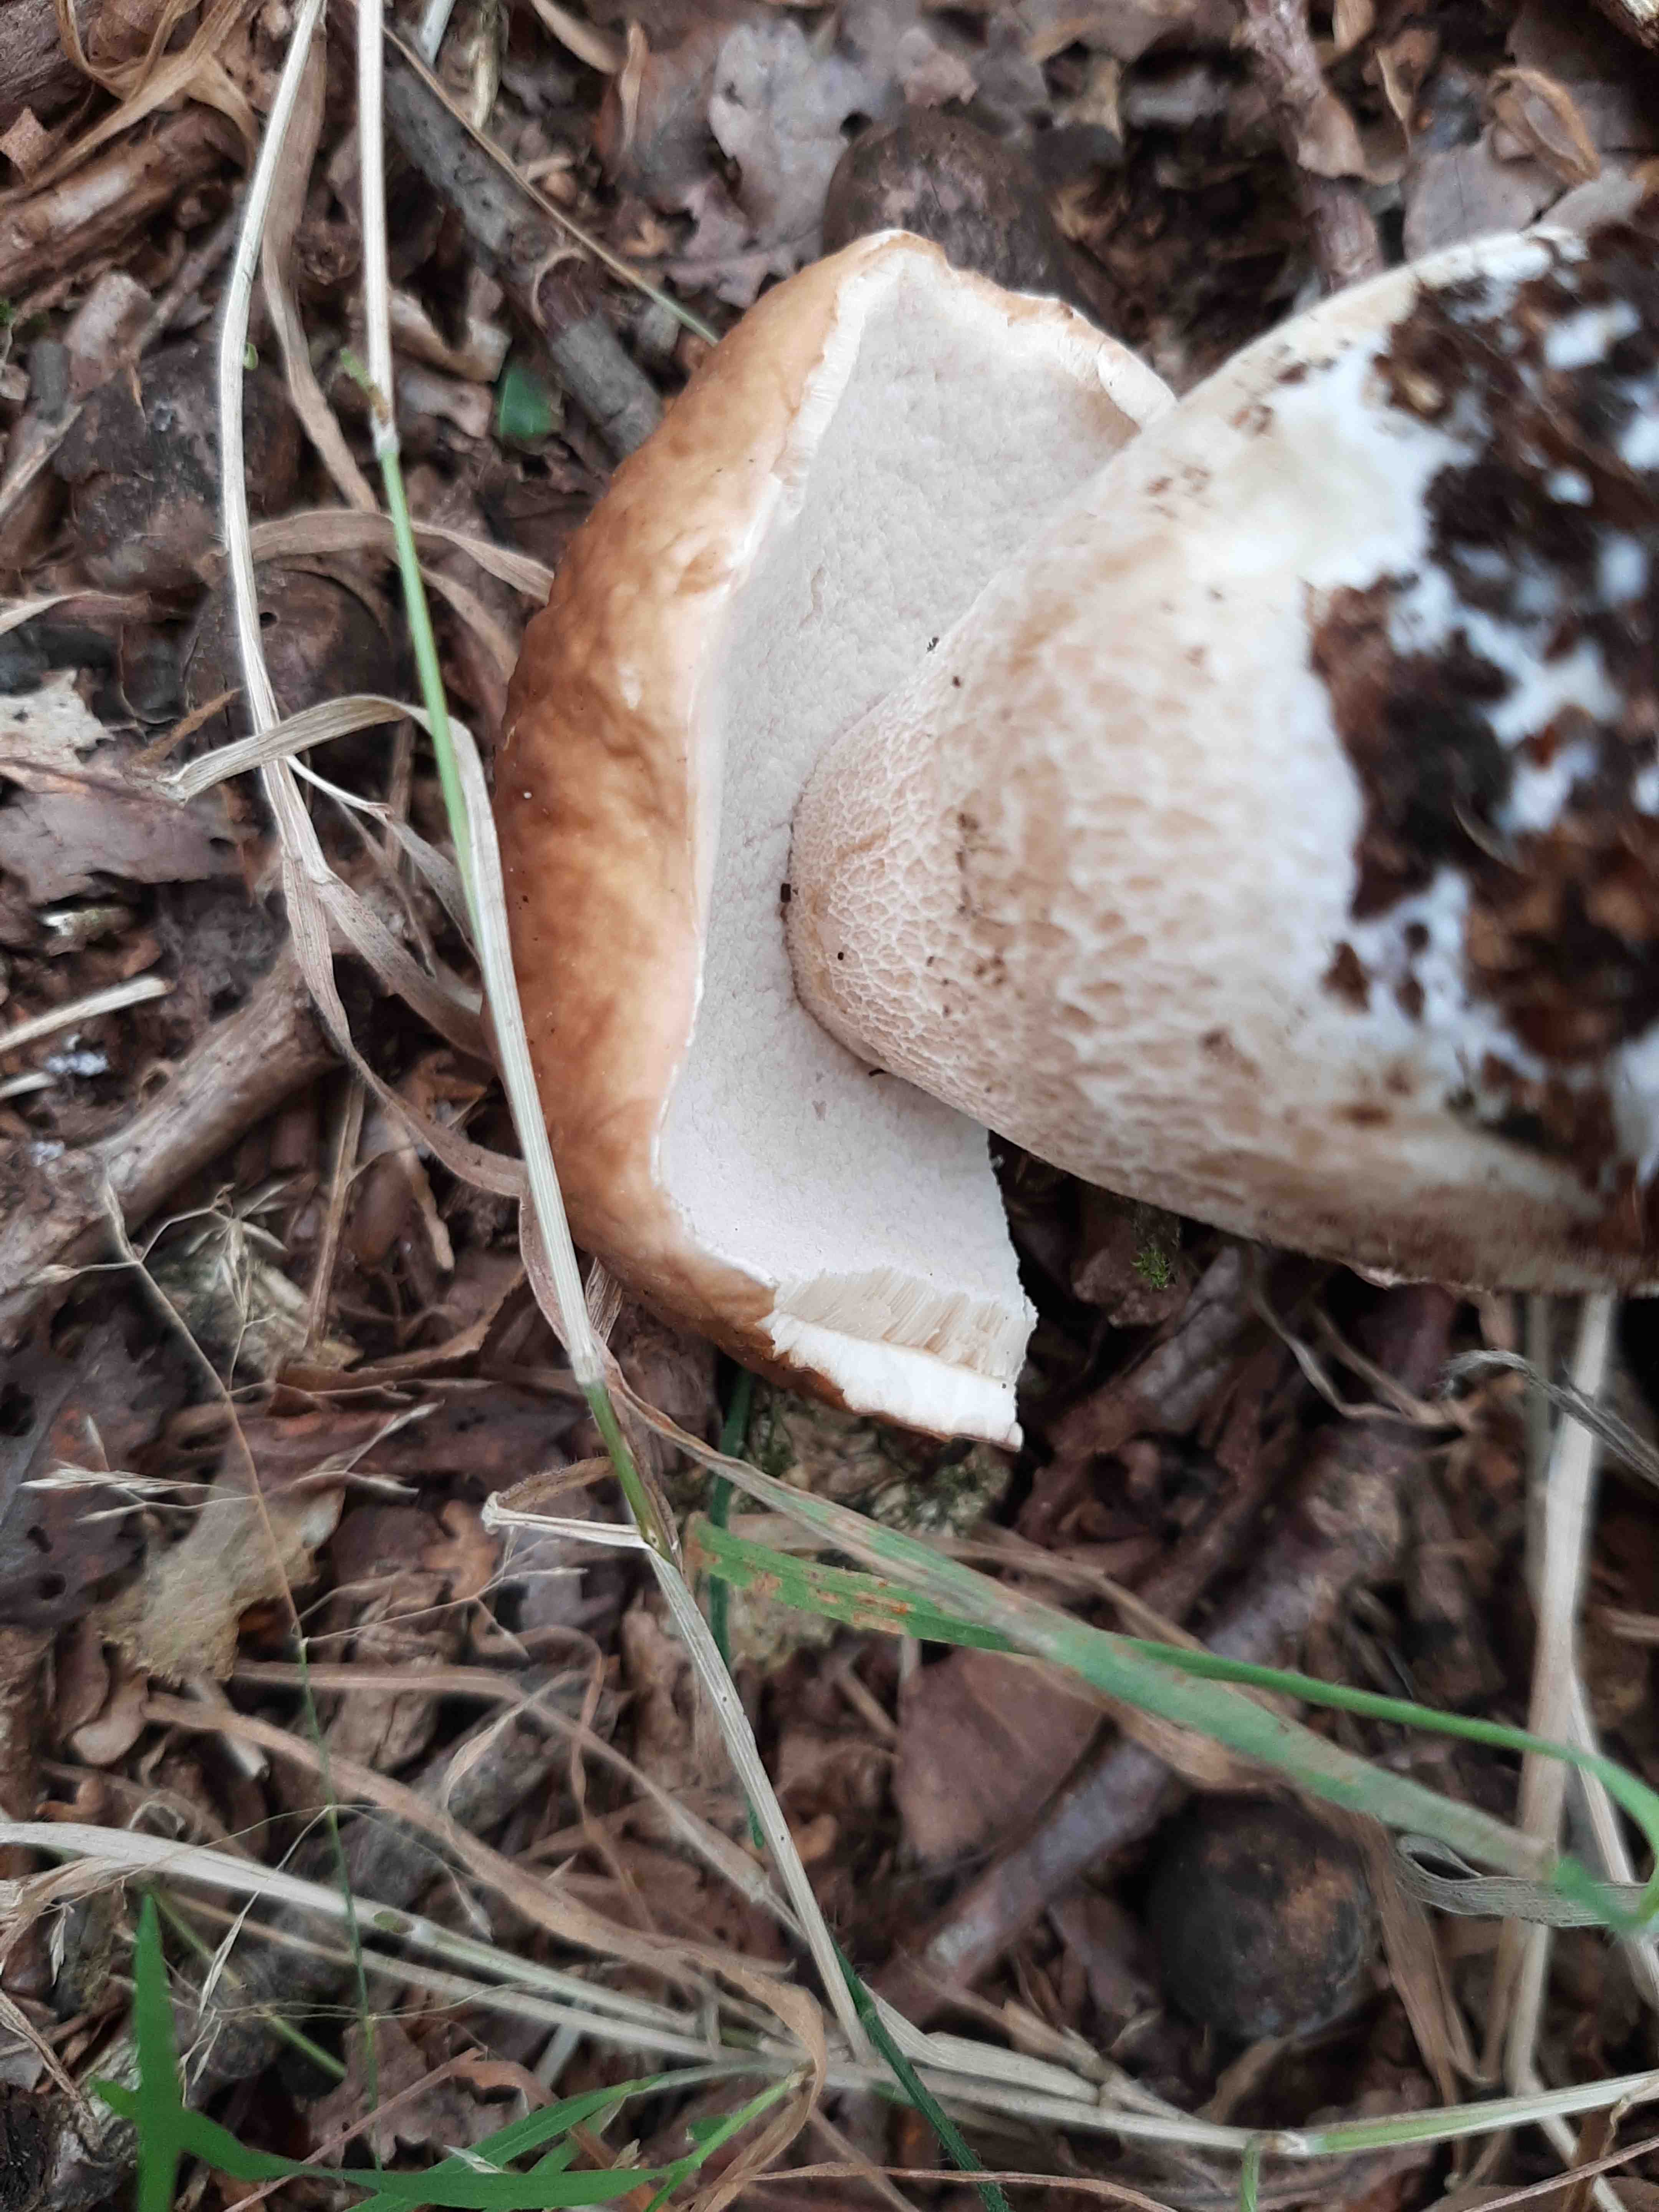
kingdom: Fungi
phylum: Basidiomycota
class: Agaricomycetes
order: Boletales
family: Boletaceae
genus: Boletus
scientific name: Boletus edulis
